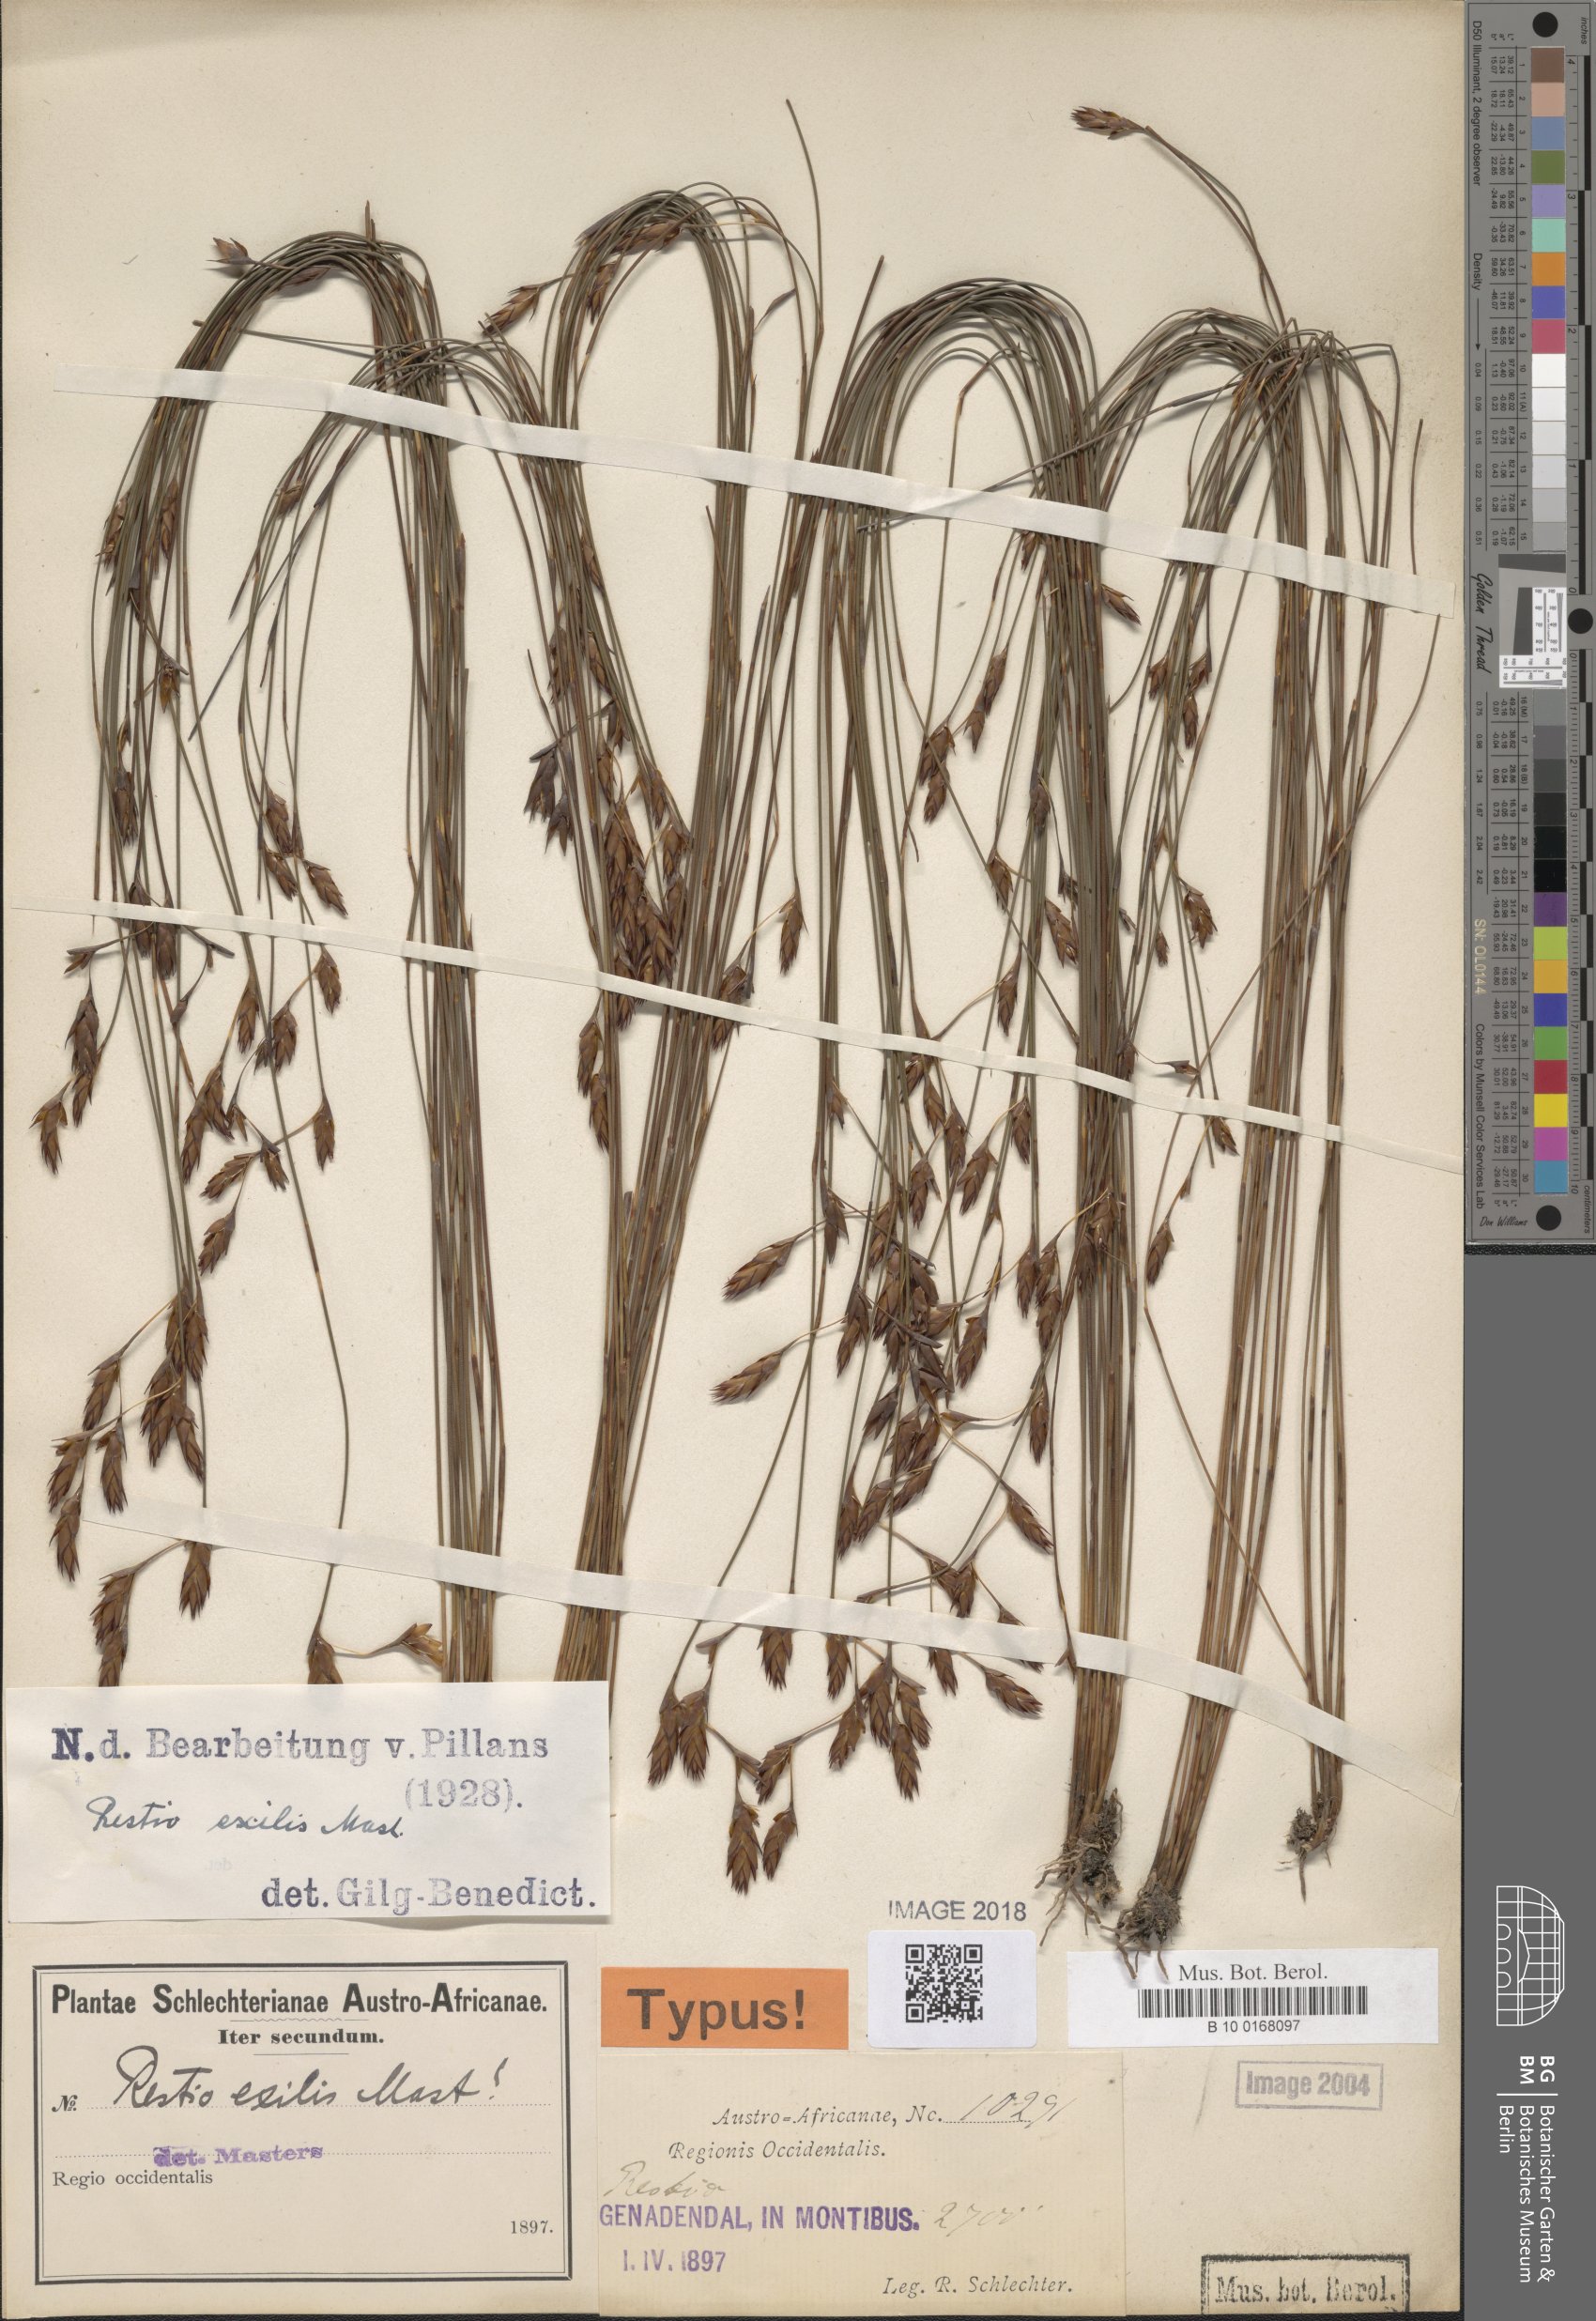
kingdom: Plantae
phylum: Tracheophyta
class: Liliopsida
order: Poales
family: Restionaceae
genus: Restio
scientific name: Restio exilis
